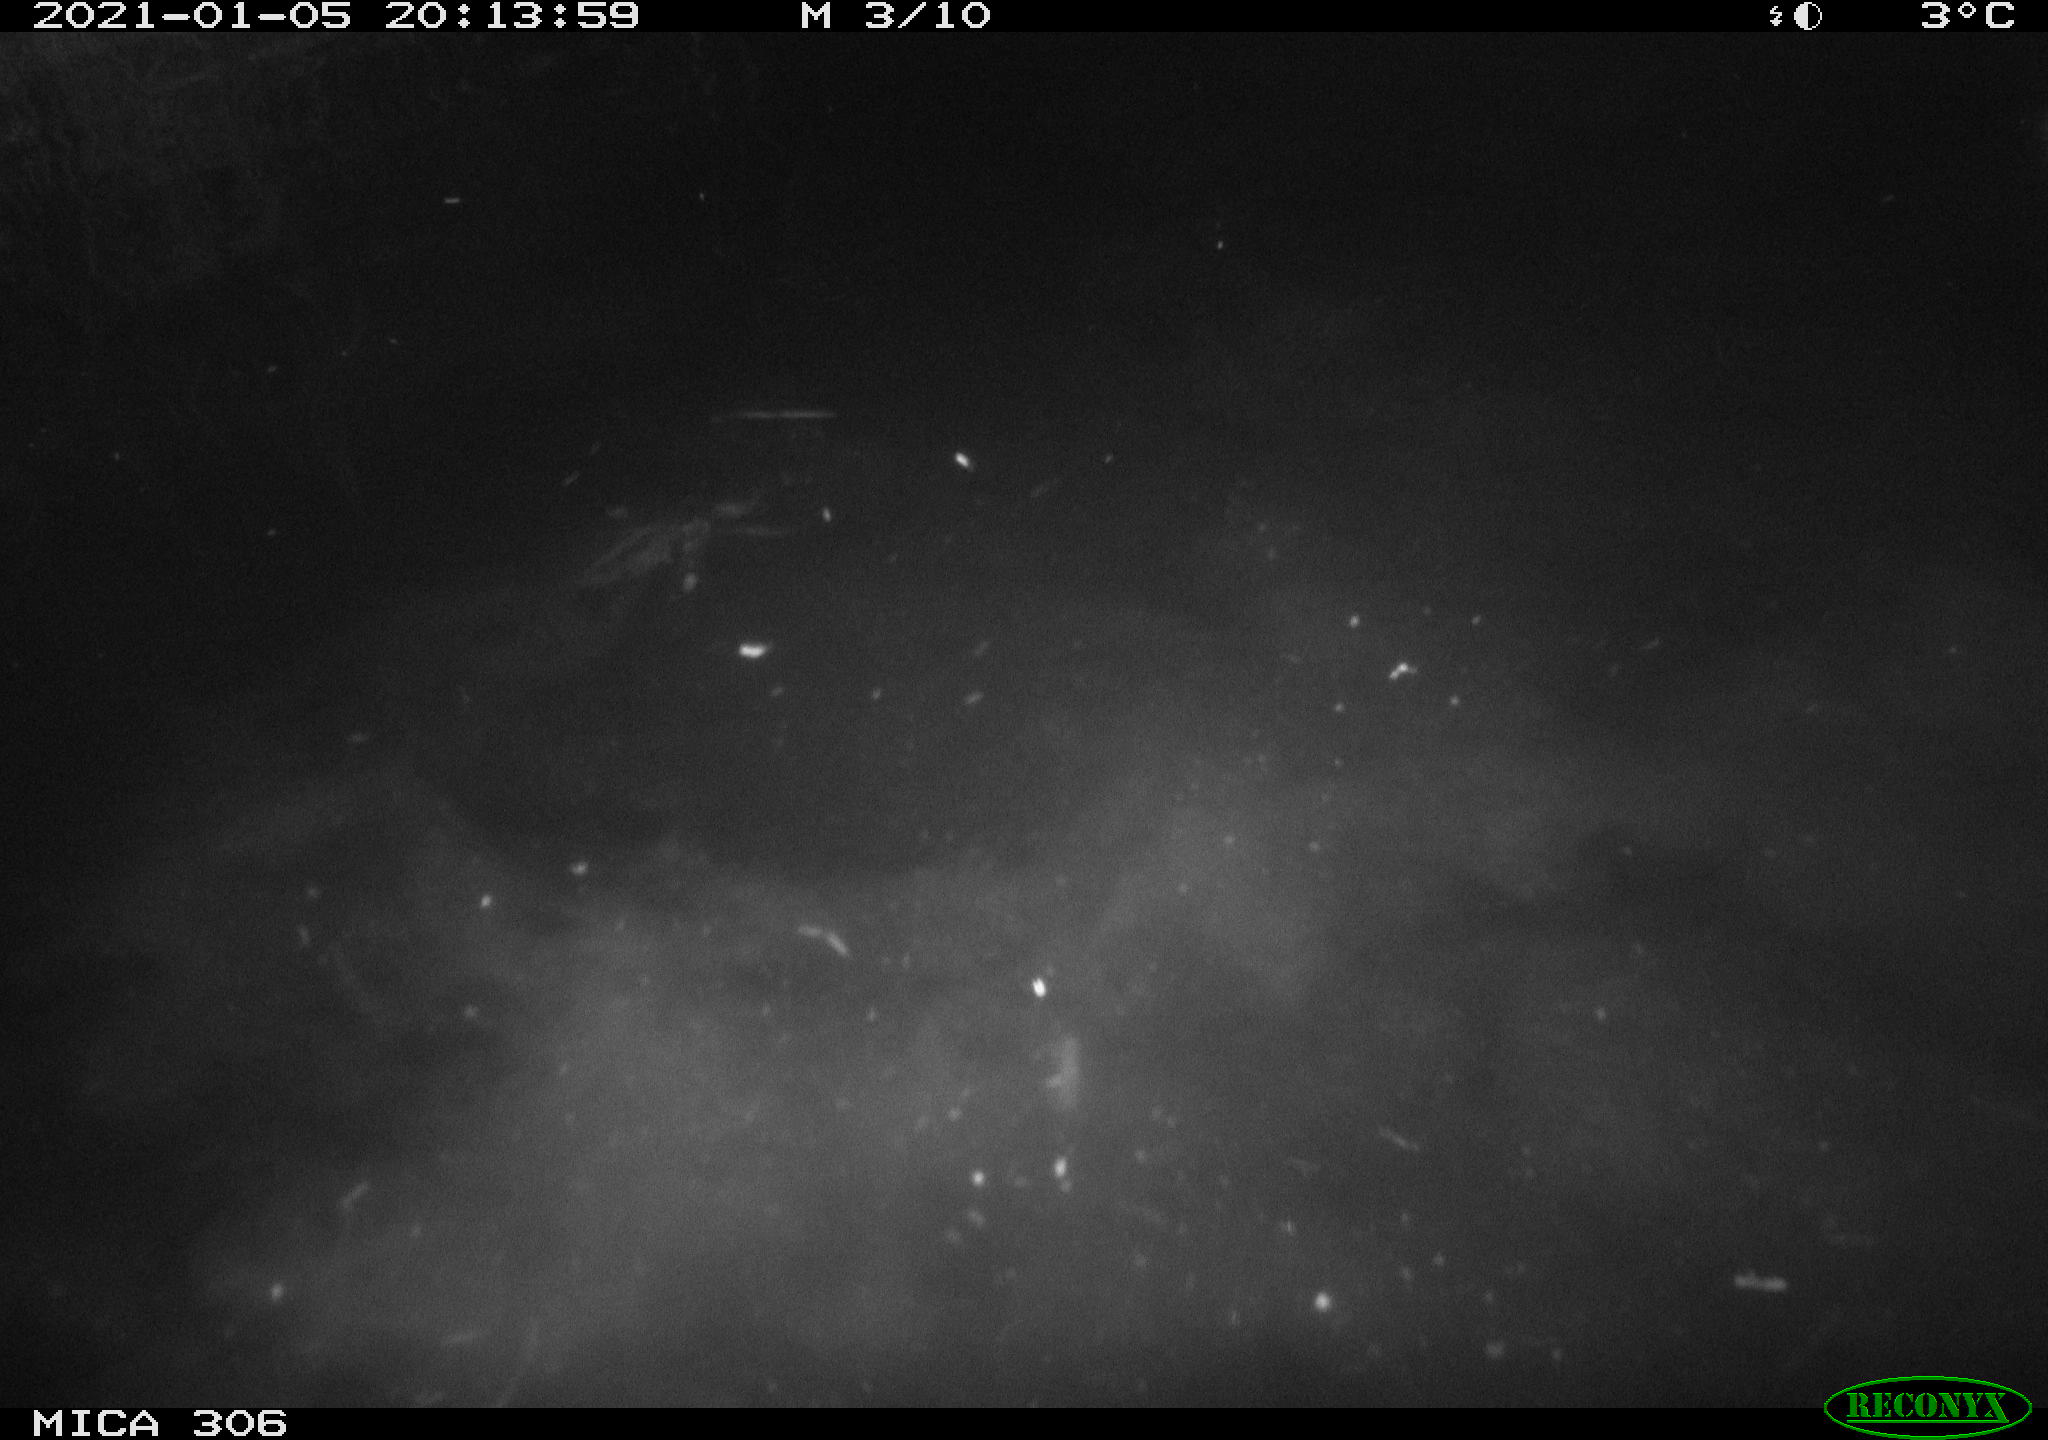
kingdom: Animalia
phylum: Chordata
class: Aves
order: Anseriformes
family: Anatidae
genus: Anas
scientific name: Anas
